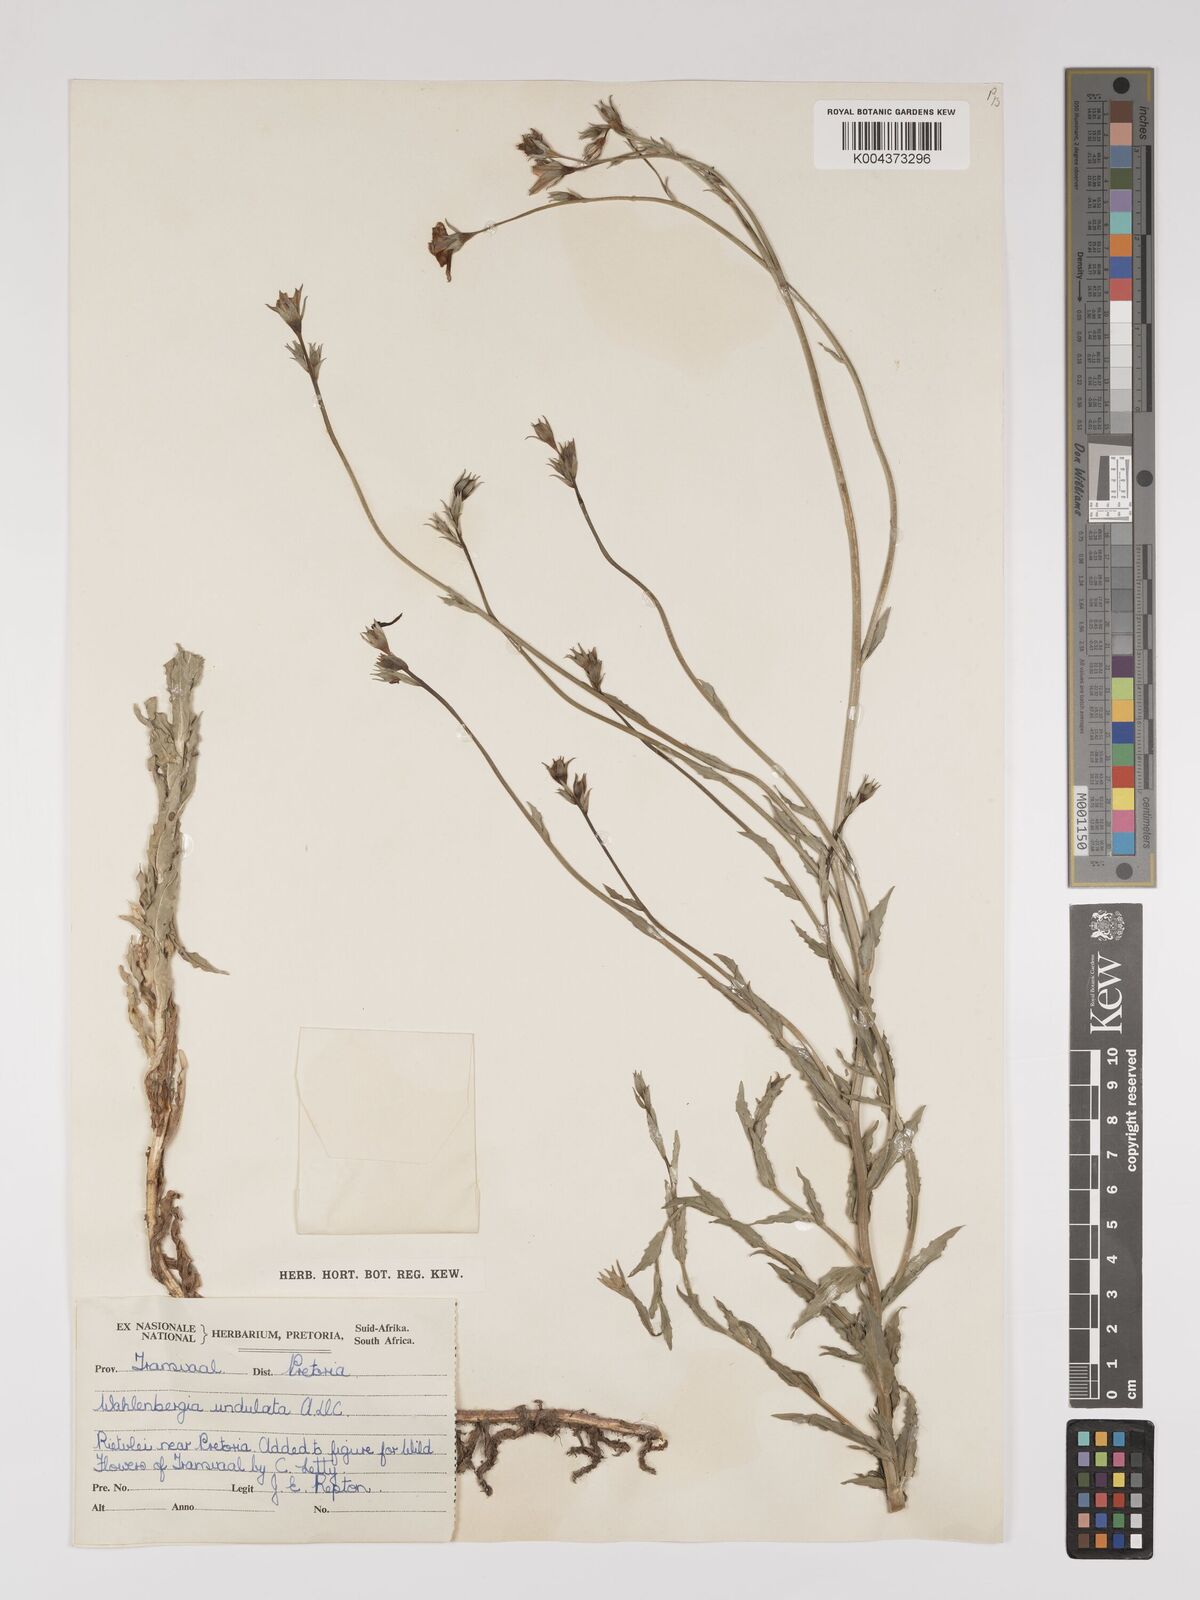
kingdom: Plantae
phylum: Tracheophyta
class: Magnoliopsida
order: Asterales
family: Campanulaceae
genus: Wahlenbergia
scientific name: Wahlenbergia undulata
